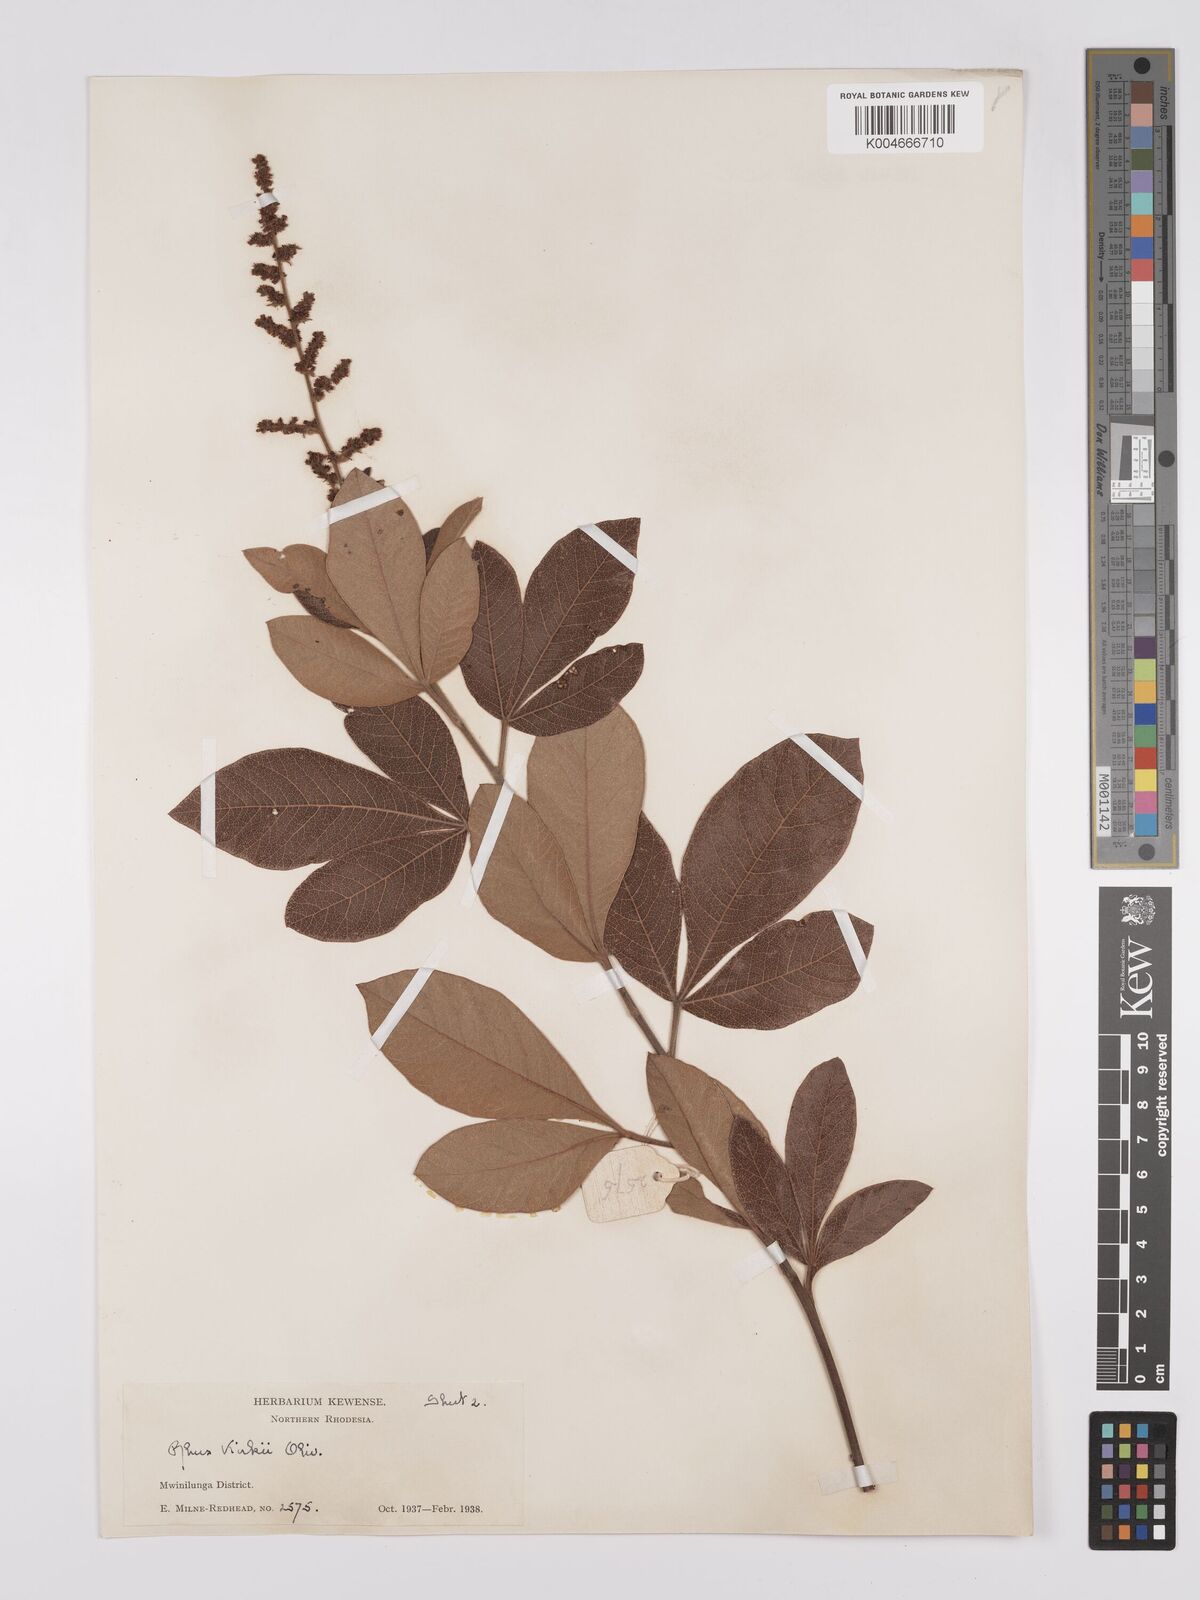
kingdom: Plantae
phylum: Tracheophyta
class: Magnoliopsida
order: Sapindales
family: Anacardiaceae
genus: Searsia
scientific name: Searsia kirkii
